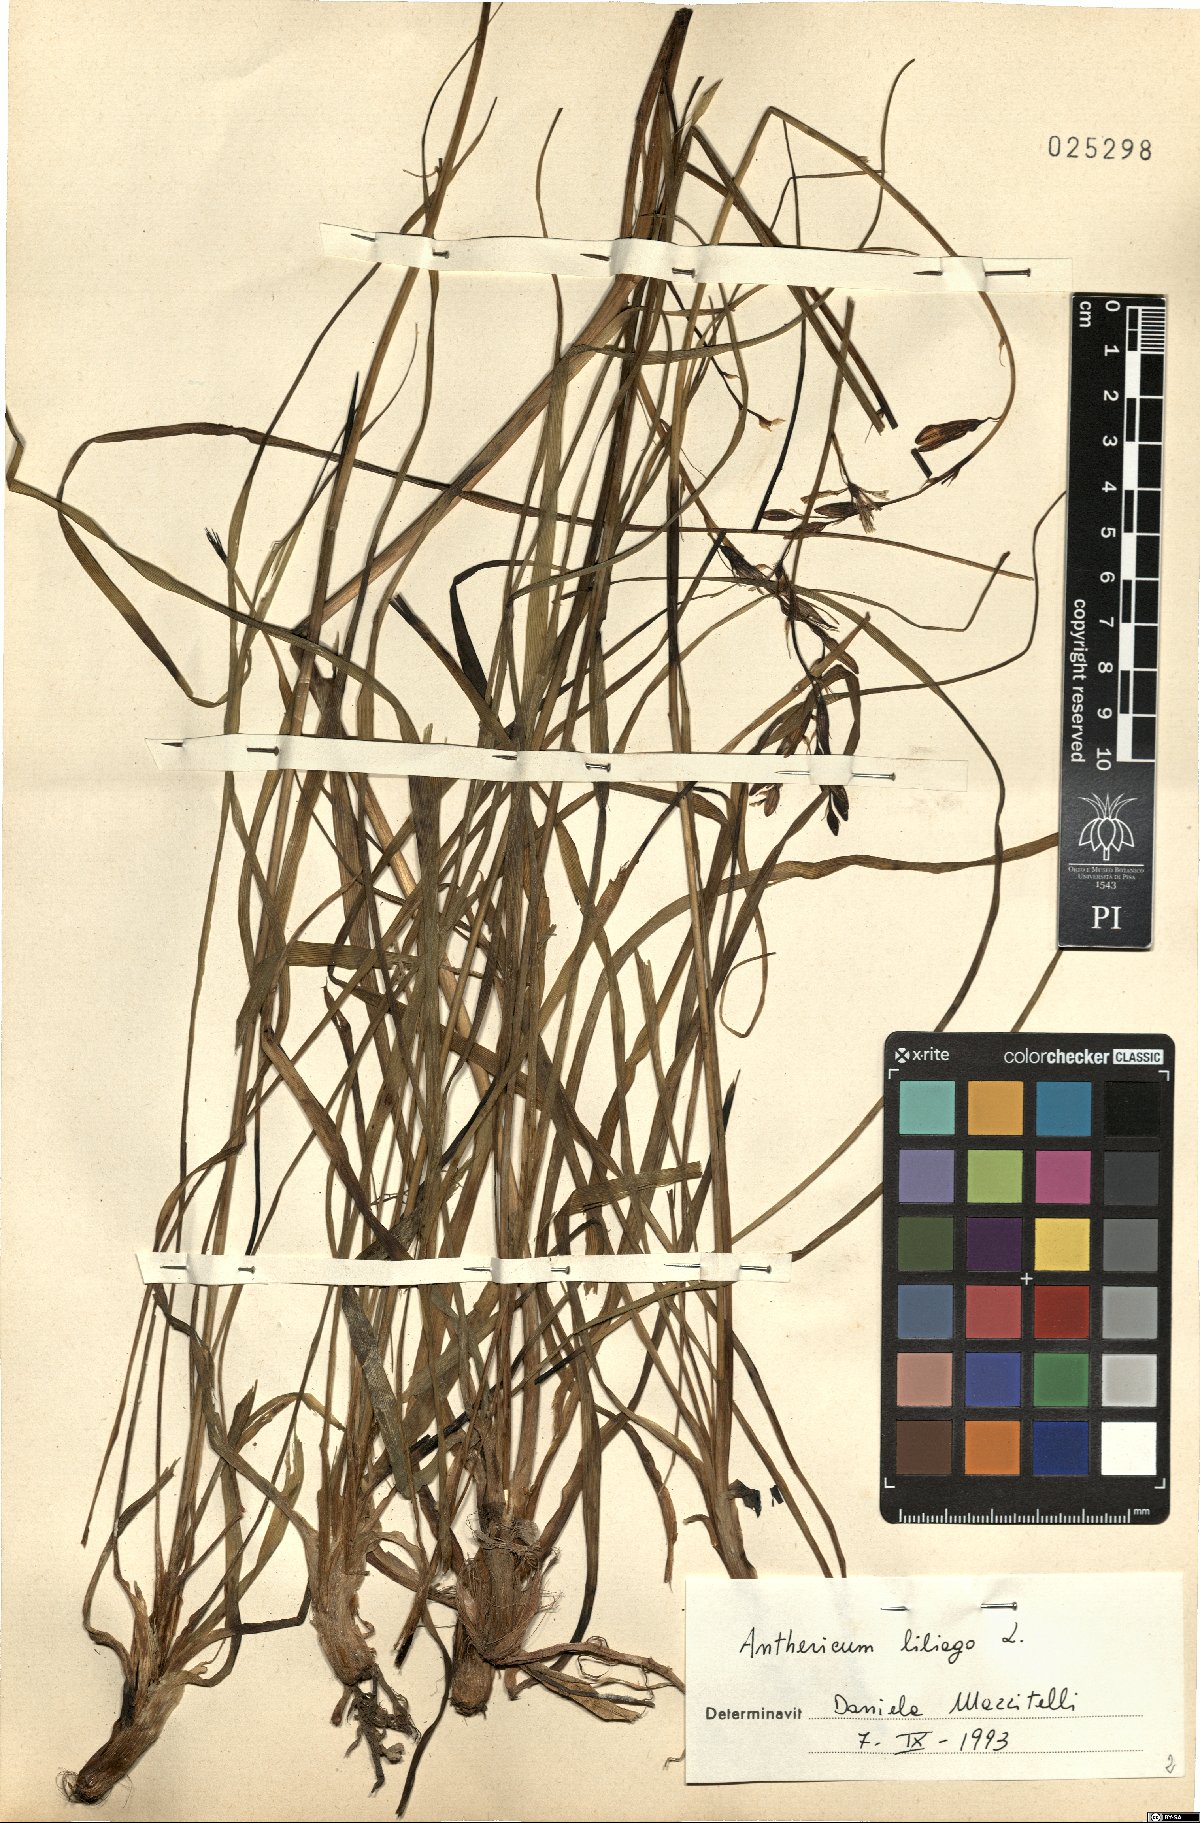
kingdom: Plantae
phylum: Tracheophyta
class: Liliopsida
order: Asparagales
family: Asparagaceae
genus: Anthericum
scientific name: Anthericum liliago
